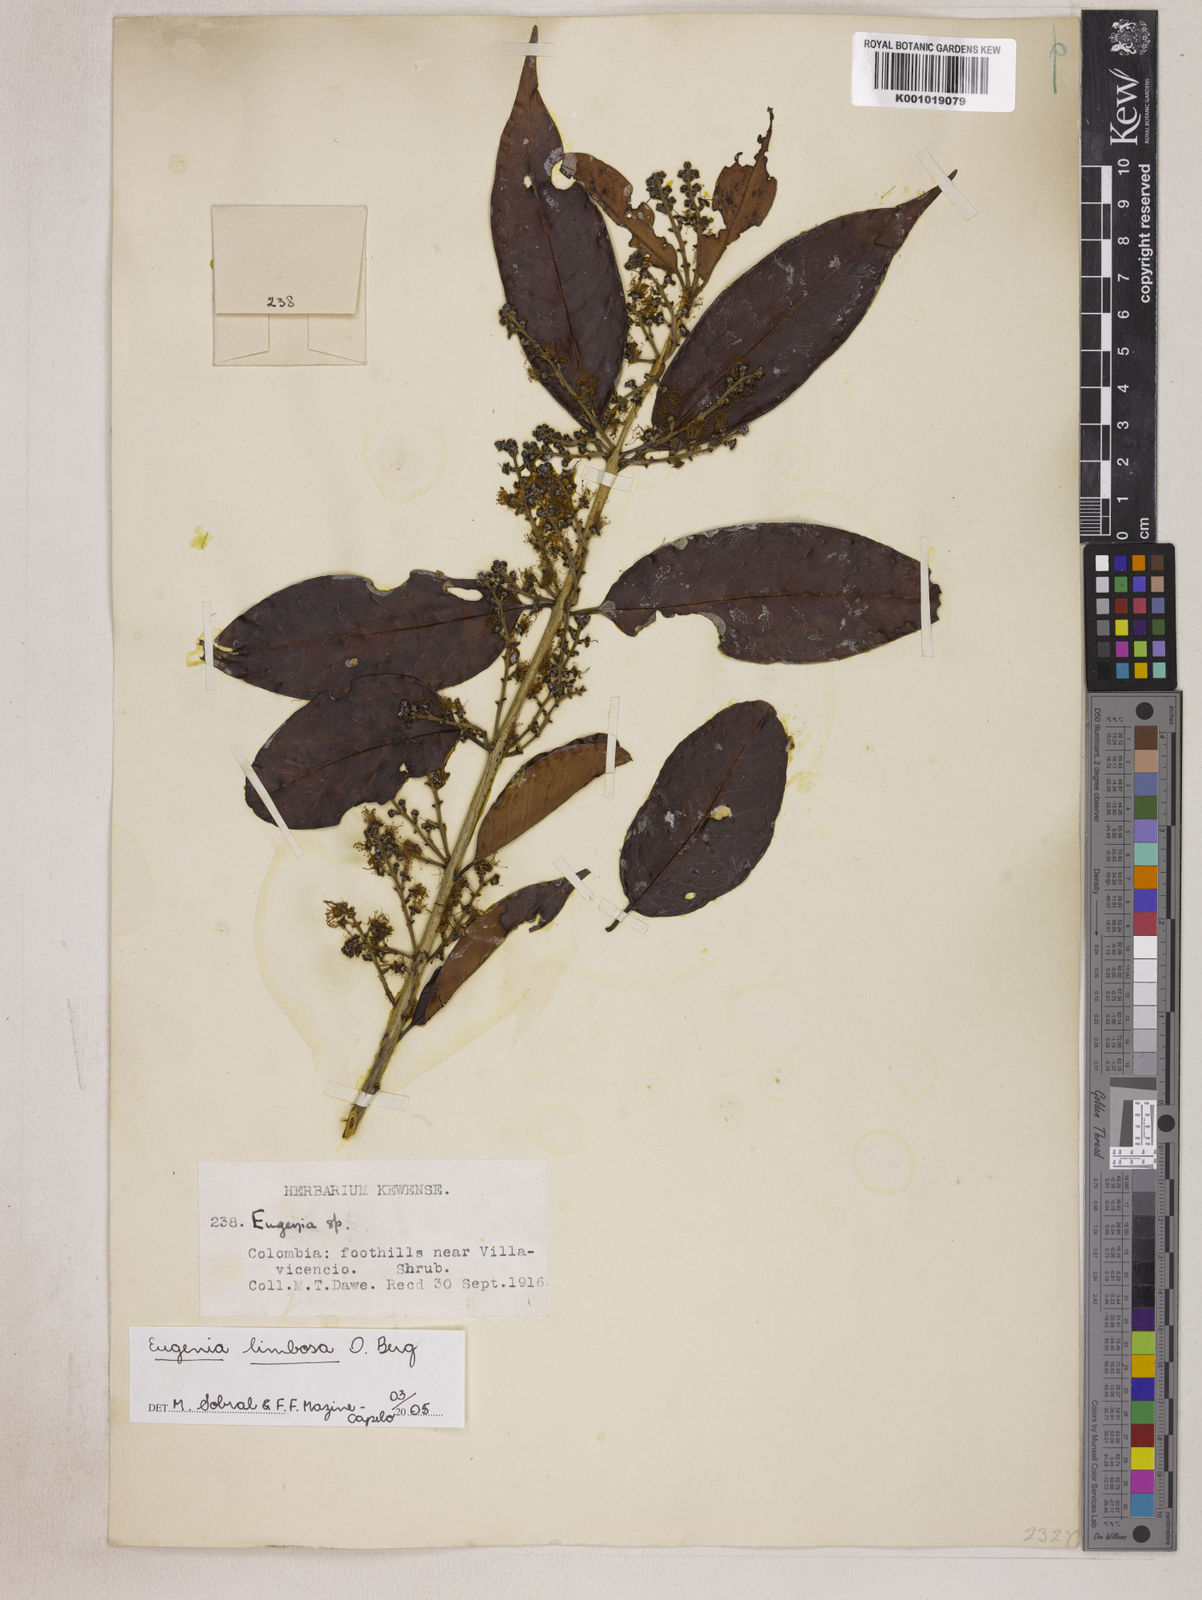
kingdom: Plantae
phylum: Tracheophyta
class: Magnoliopsida
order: Myrtales
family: Myrtaceae
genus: Eugenia
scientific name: Eugenia limbosa
